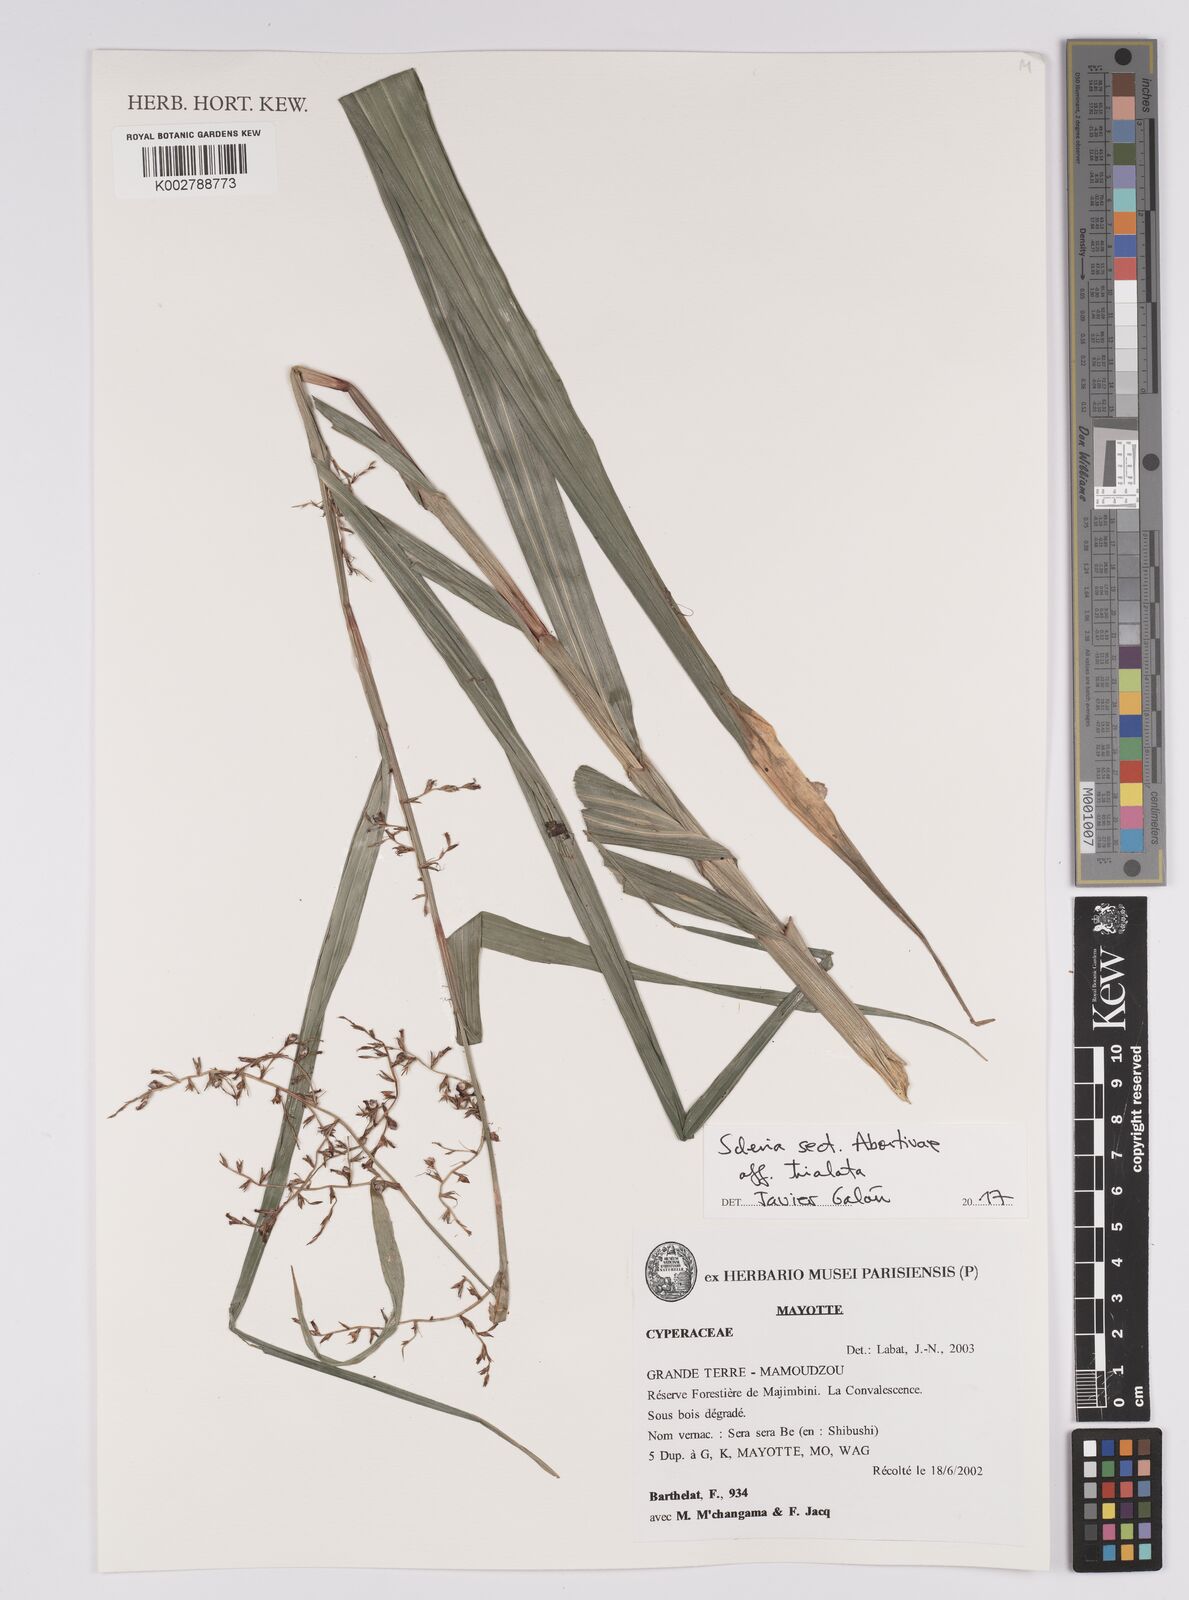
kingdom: Plantae
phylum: Tracheophyta
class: Liliopsida
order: Poales
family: Cyperaceae
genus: Scleria
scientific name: Scleria trialata
